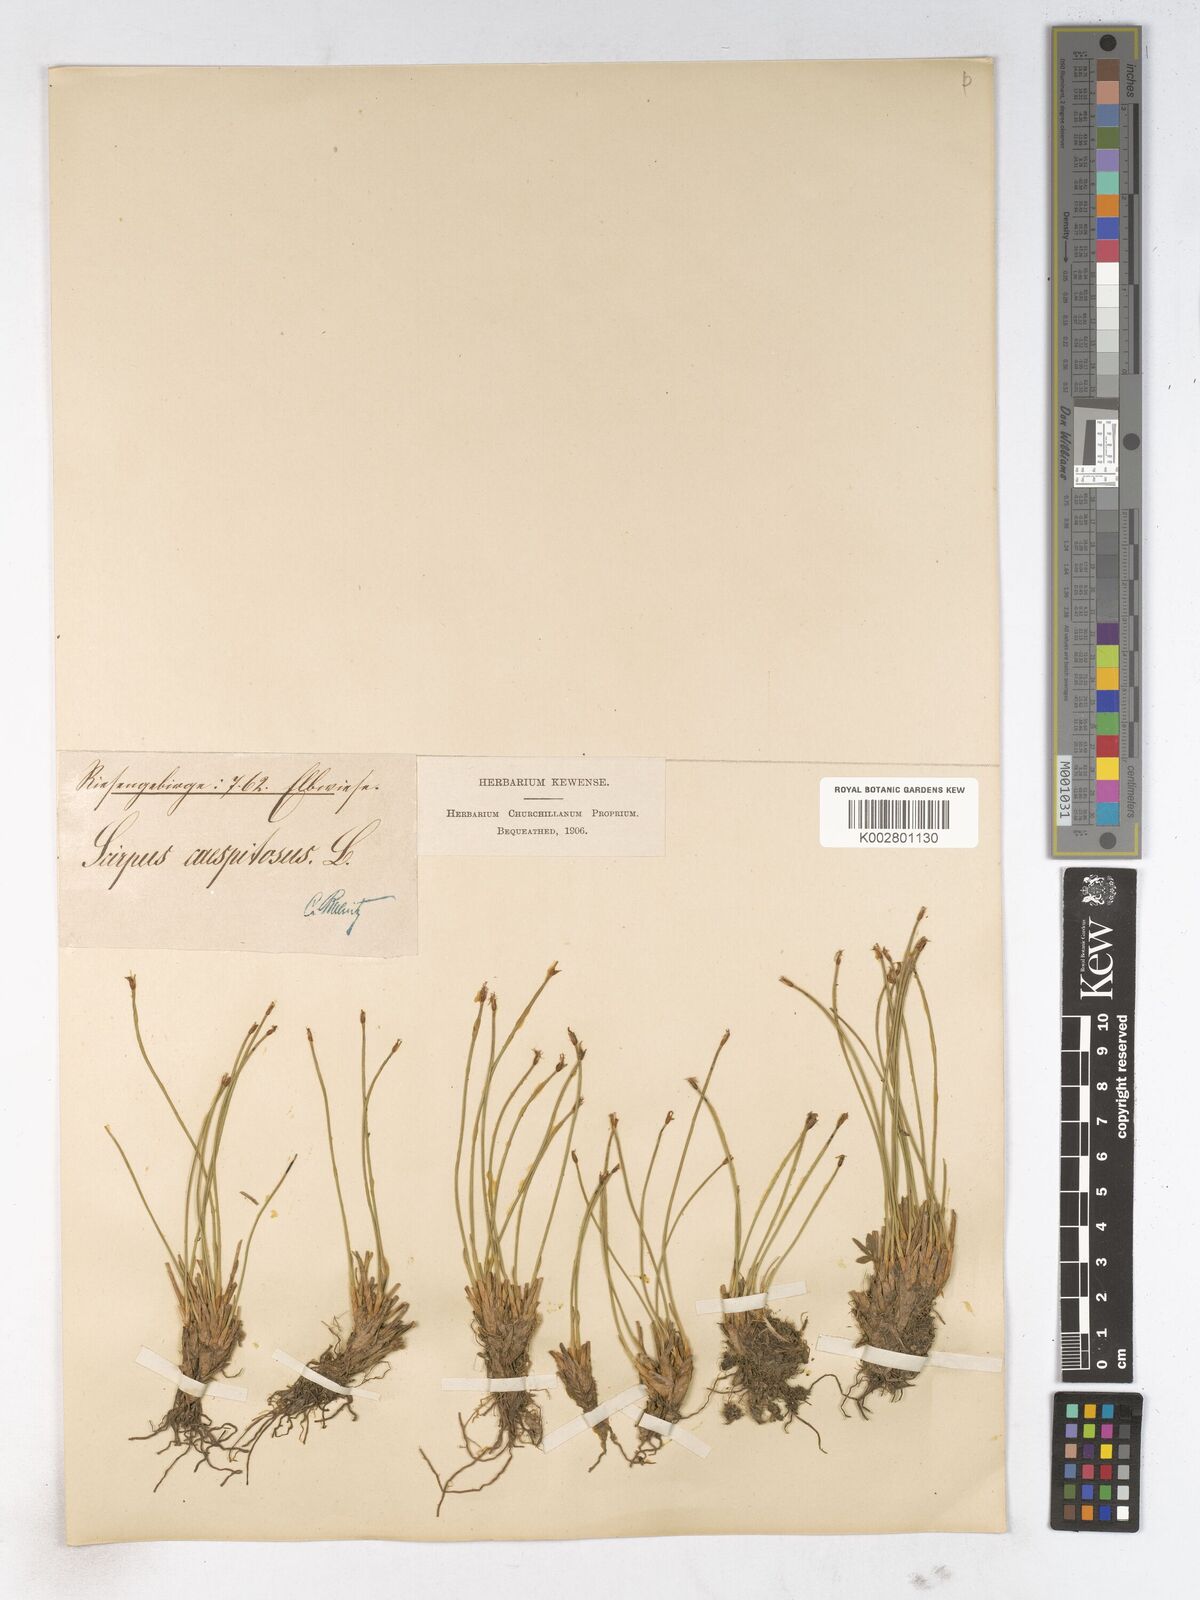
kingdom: Plantae
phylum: Tracheophyta
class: Liliopsida
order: Poales
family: Cyperaceae
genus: Trichophorum
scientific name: Trichophorum cespitosum
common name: Cespitose bulrush
